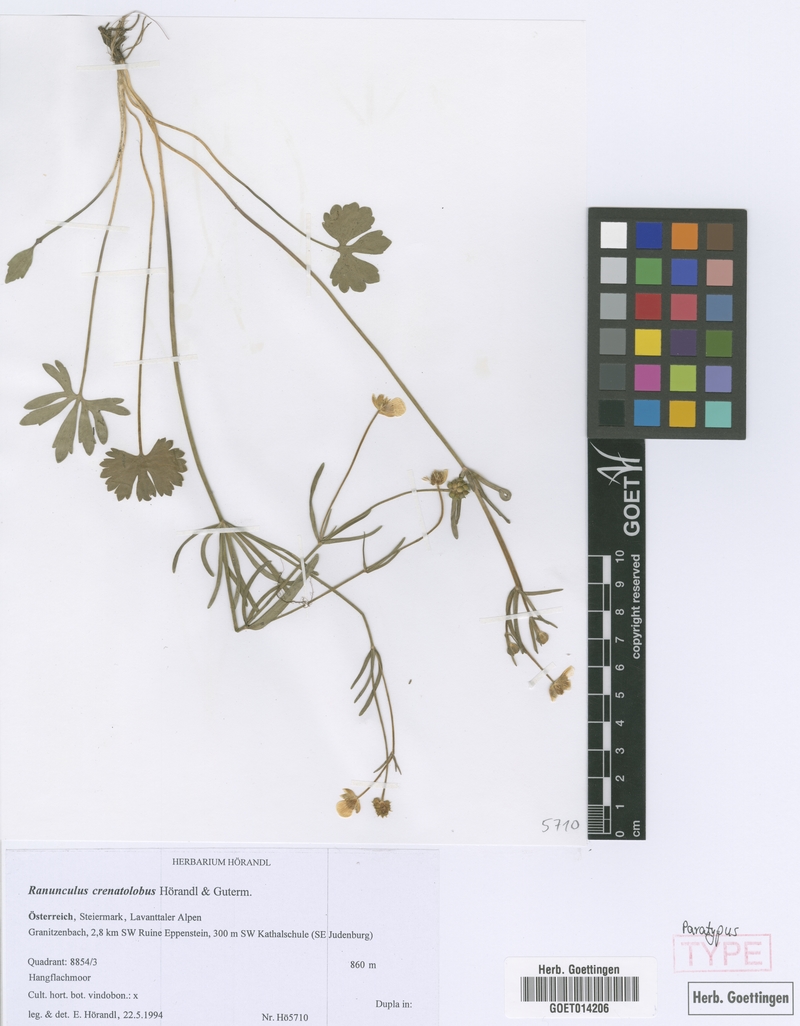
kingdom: Plantae
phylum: Tracheophyta
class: Magnoliopsida
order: Ranunculales
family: Ranunculaceae
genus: Ranunculus
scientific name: Ranunculus crenatolobus
